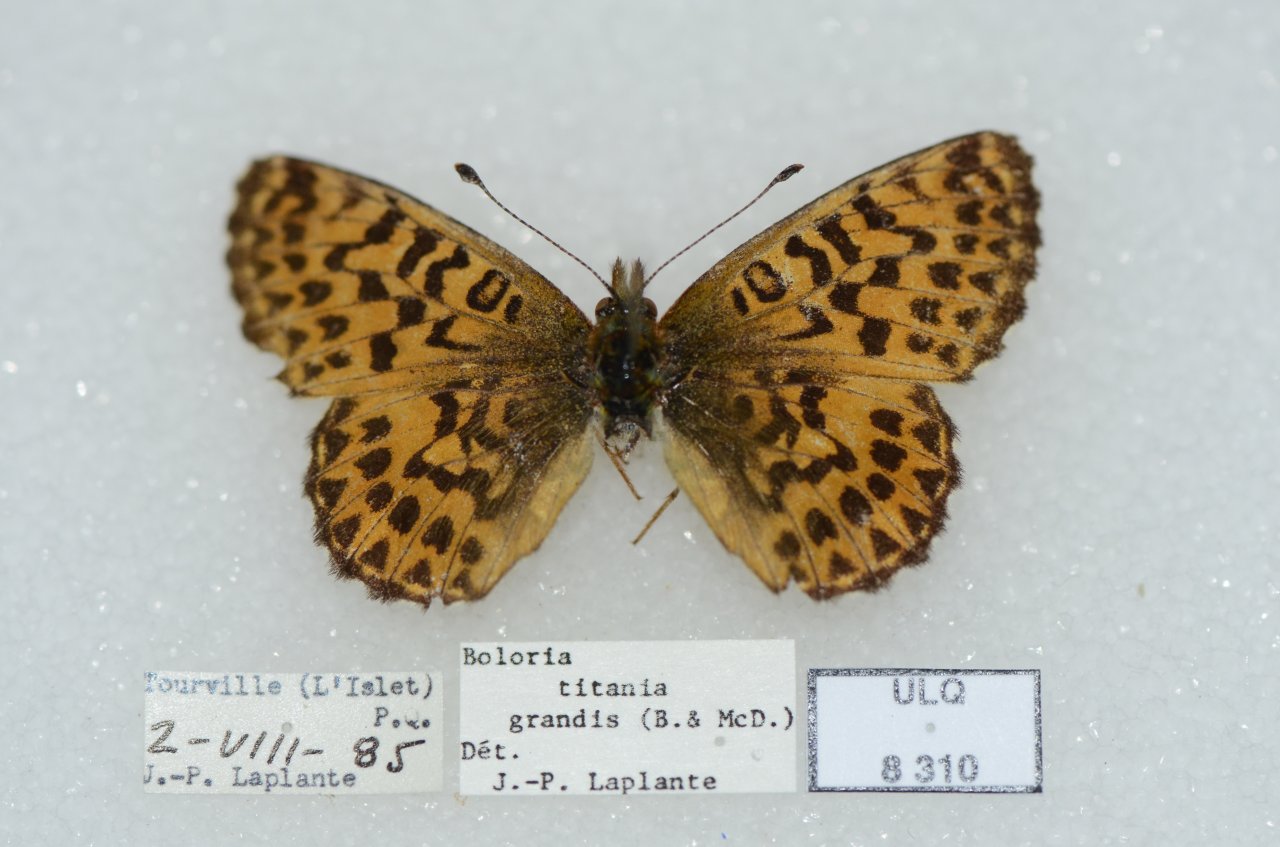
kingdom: Animalia
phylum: Arthropoda
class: Insecta
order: Lepidoptera
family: Nymphalidae
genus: Boloria
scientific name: Boloria chariclea
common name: Arctic Fritillary
